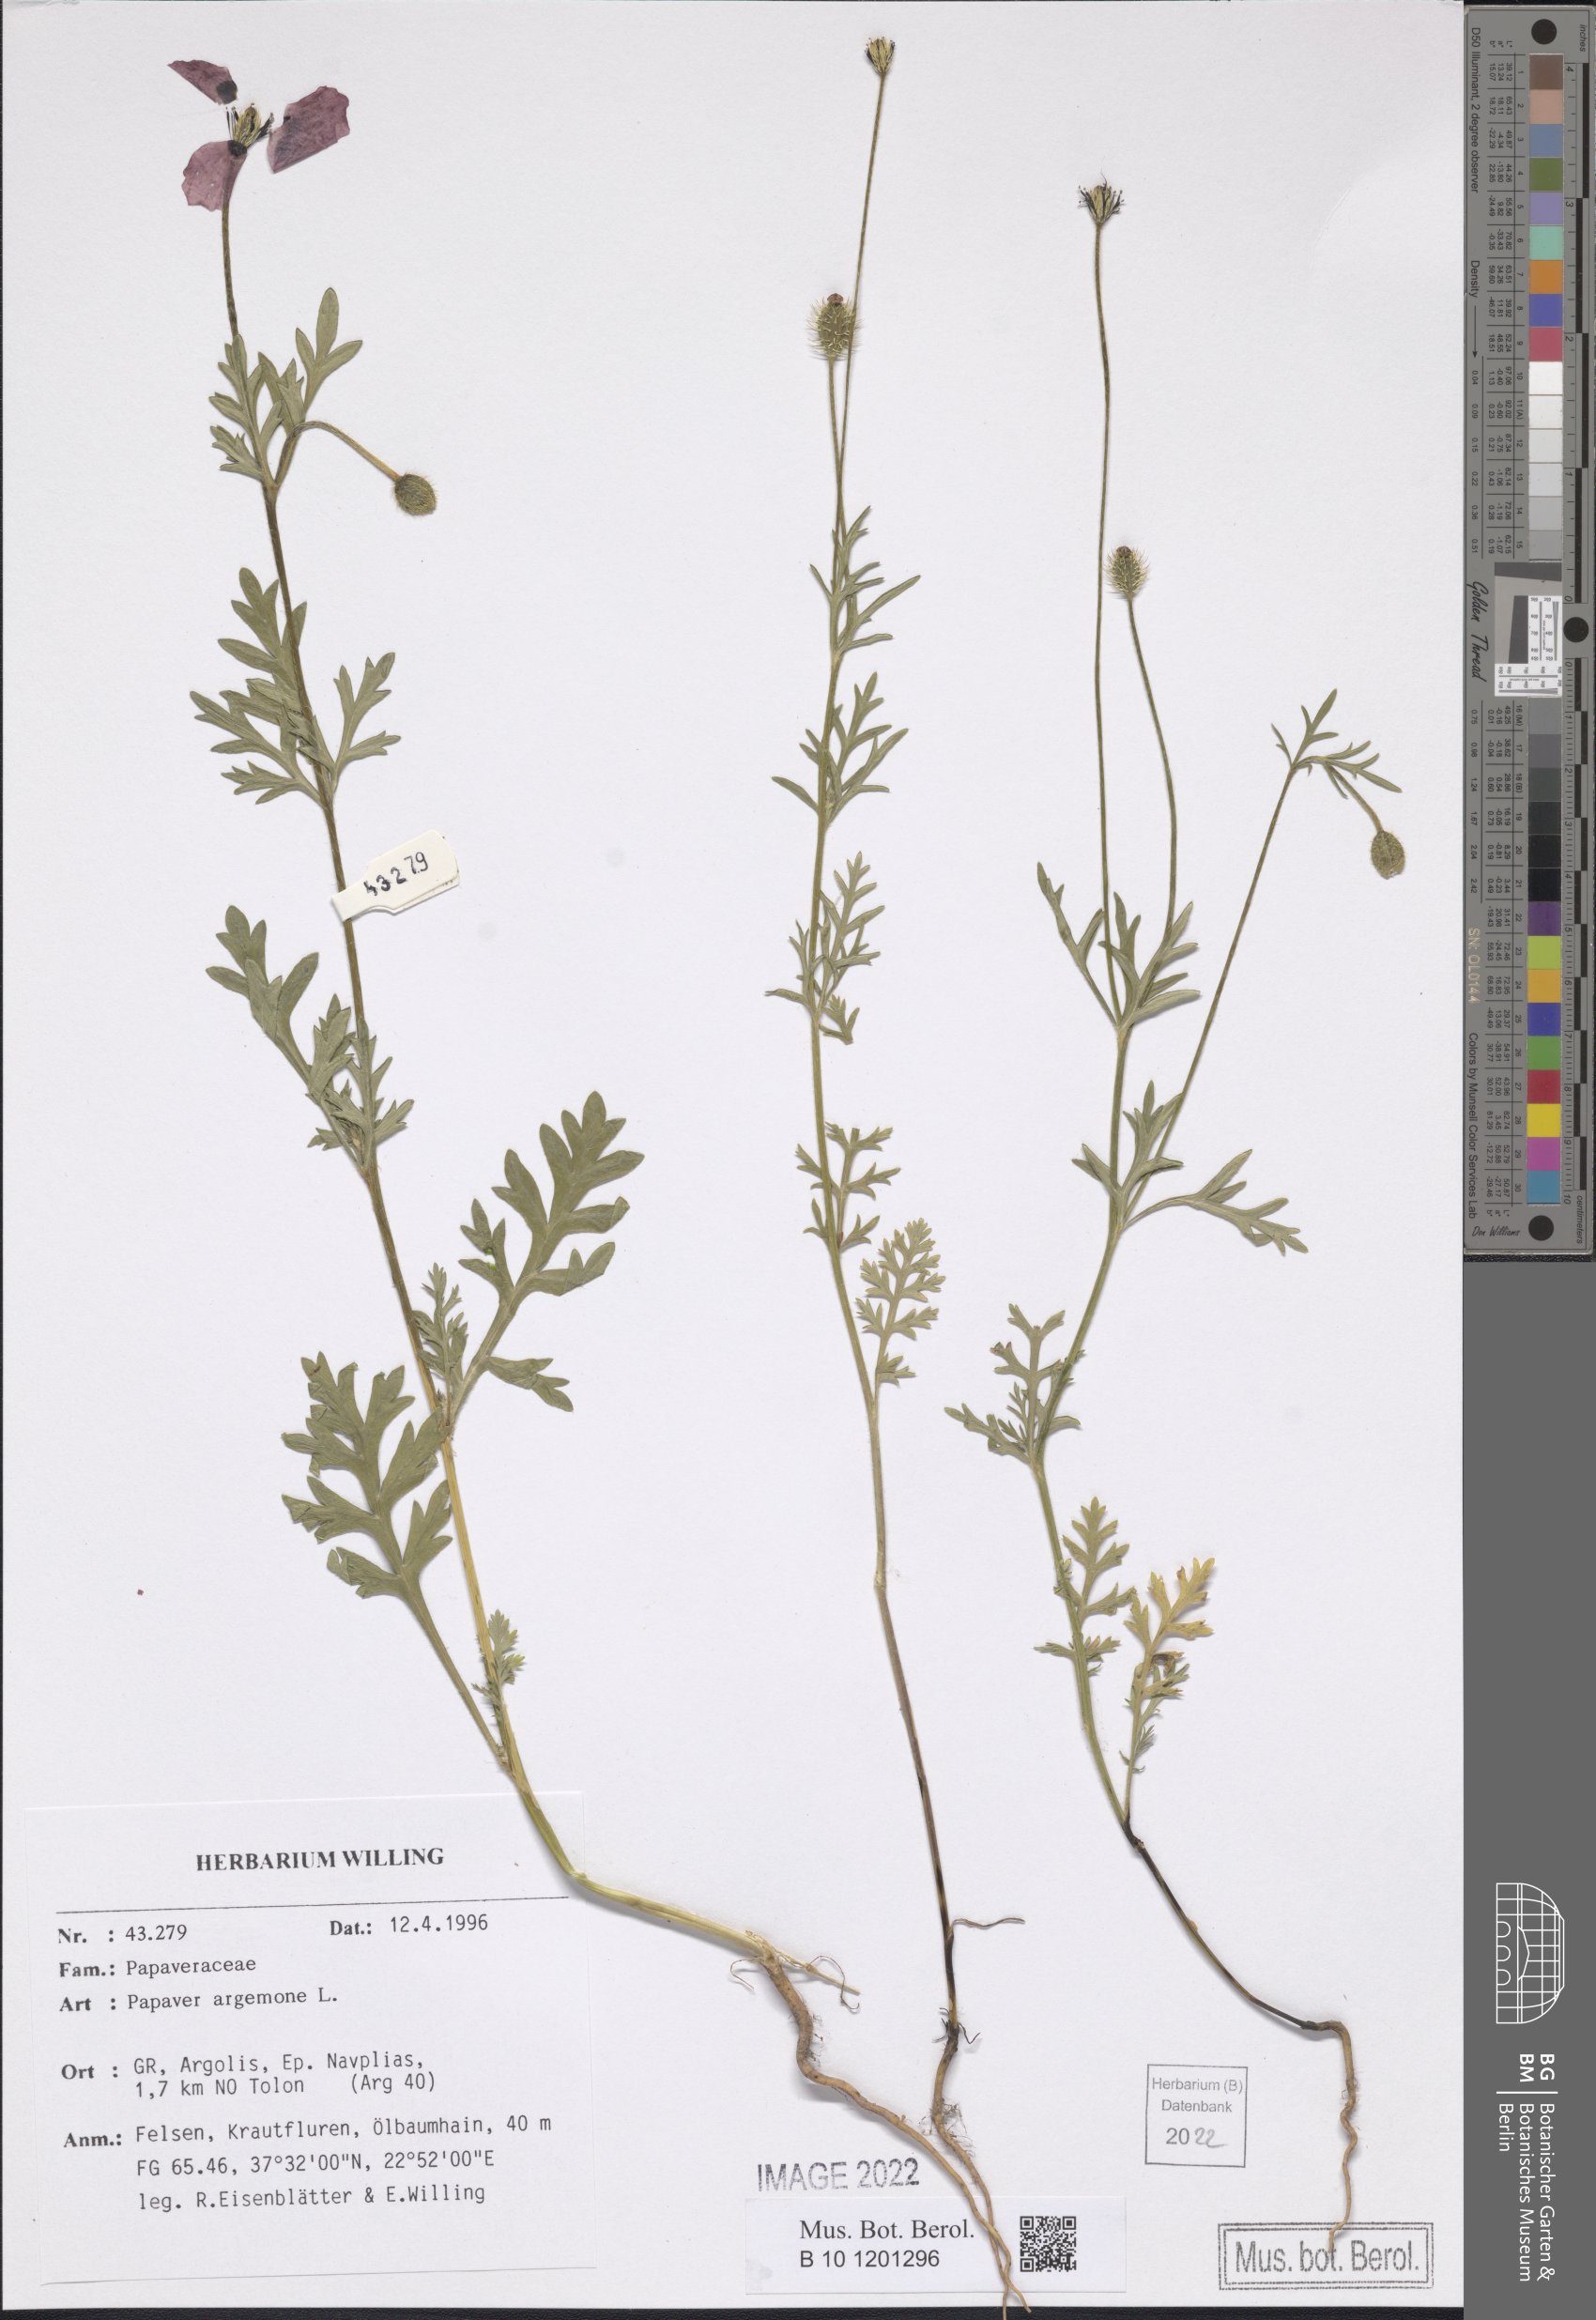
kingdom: Plantae
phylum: Tracheophyta
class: Magnoliopsida
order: Ranunculales
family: Papaveraceae
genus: Roemeria
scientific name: Roemeria argemone
